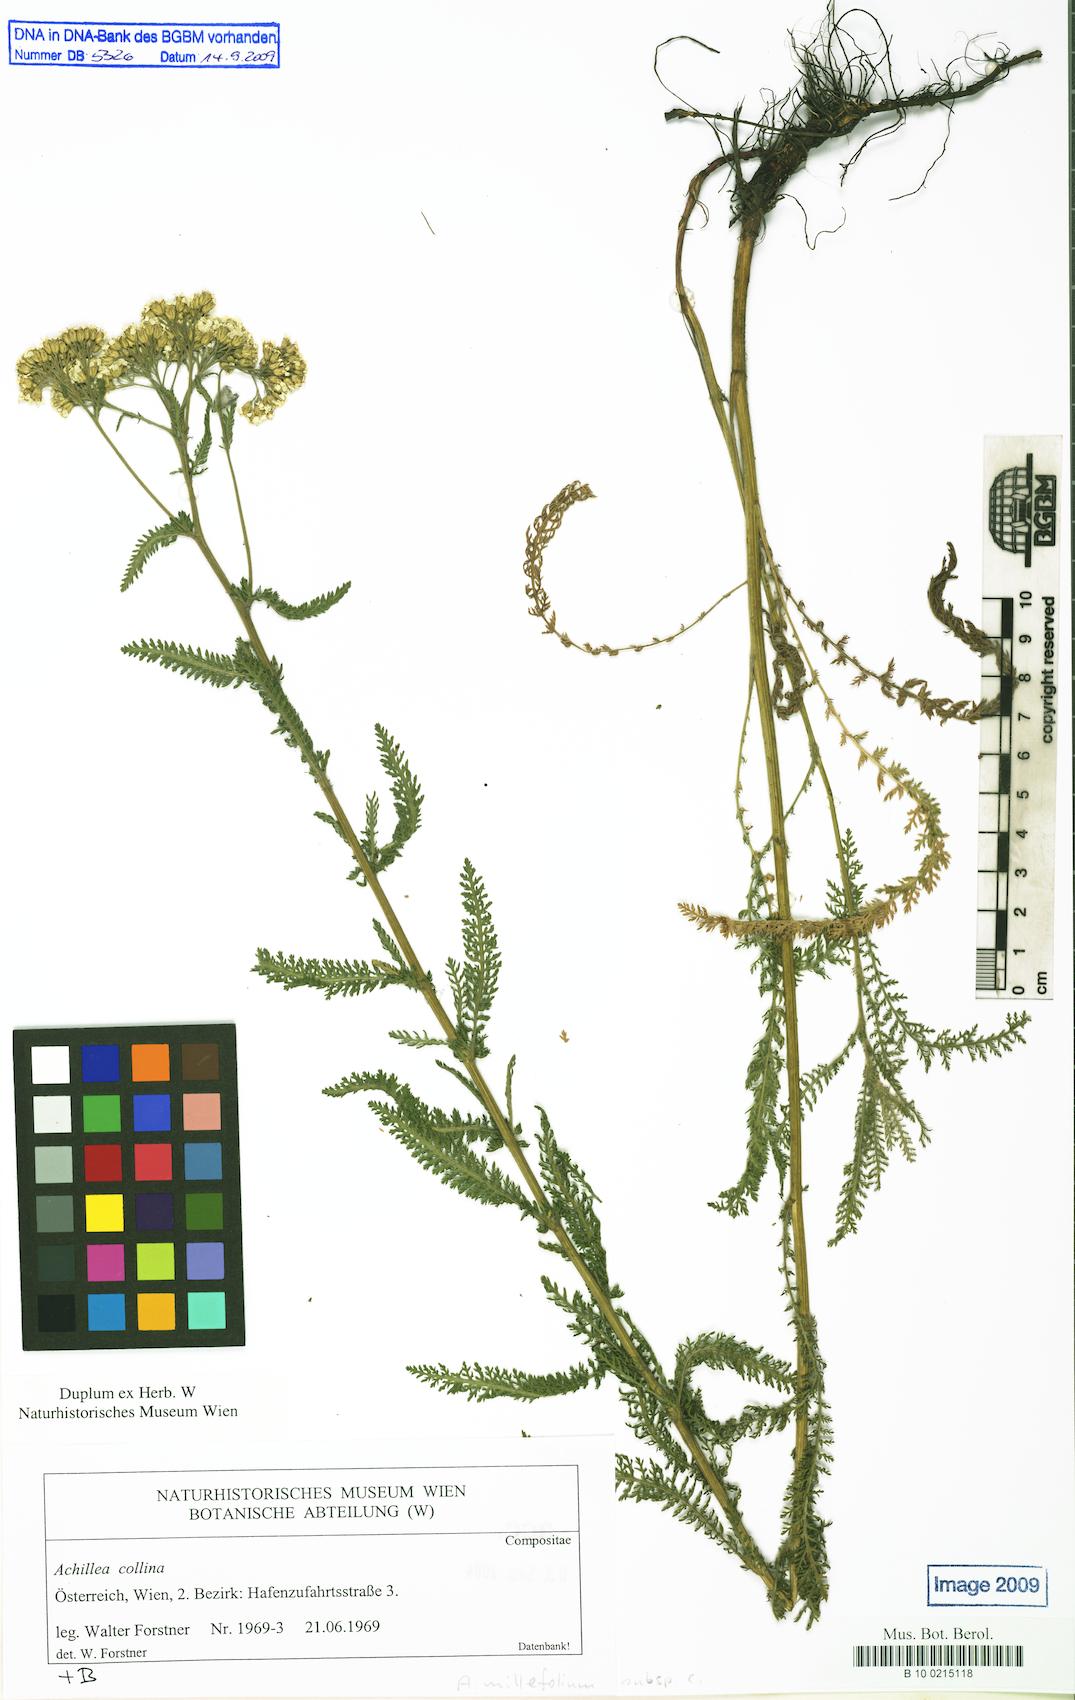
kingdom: Plantae
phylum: Tracheophyta
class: Magnoliopsida
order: Asterales
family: Asteraceae
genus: Achillea
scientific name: Achillea collina
